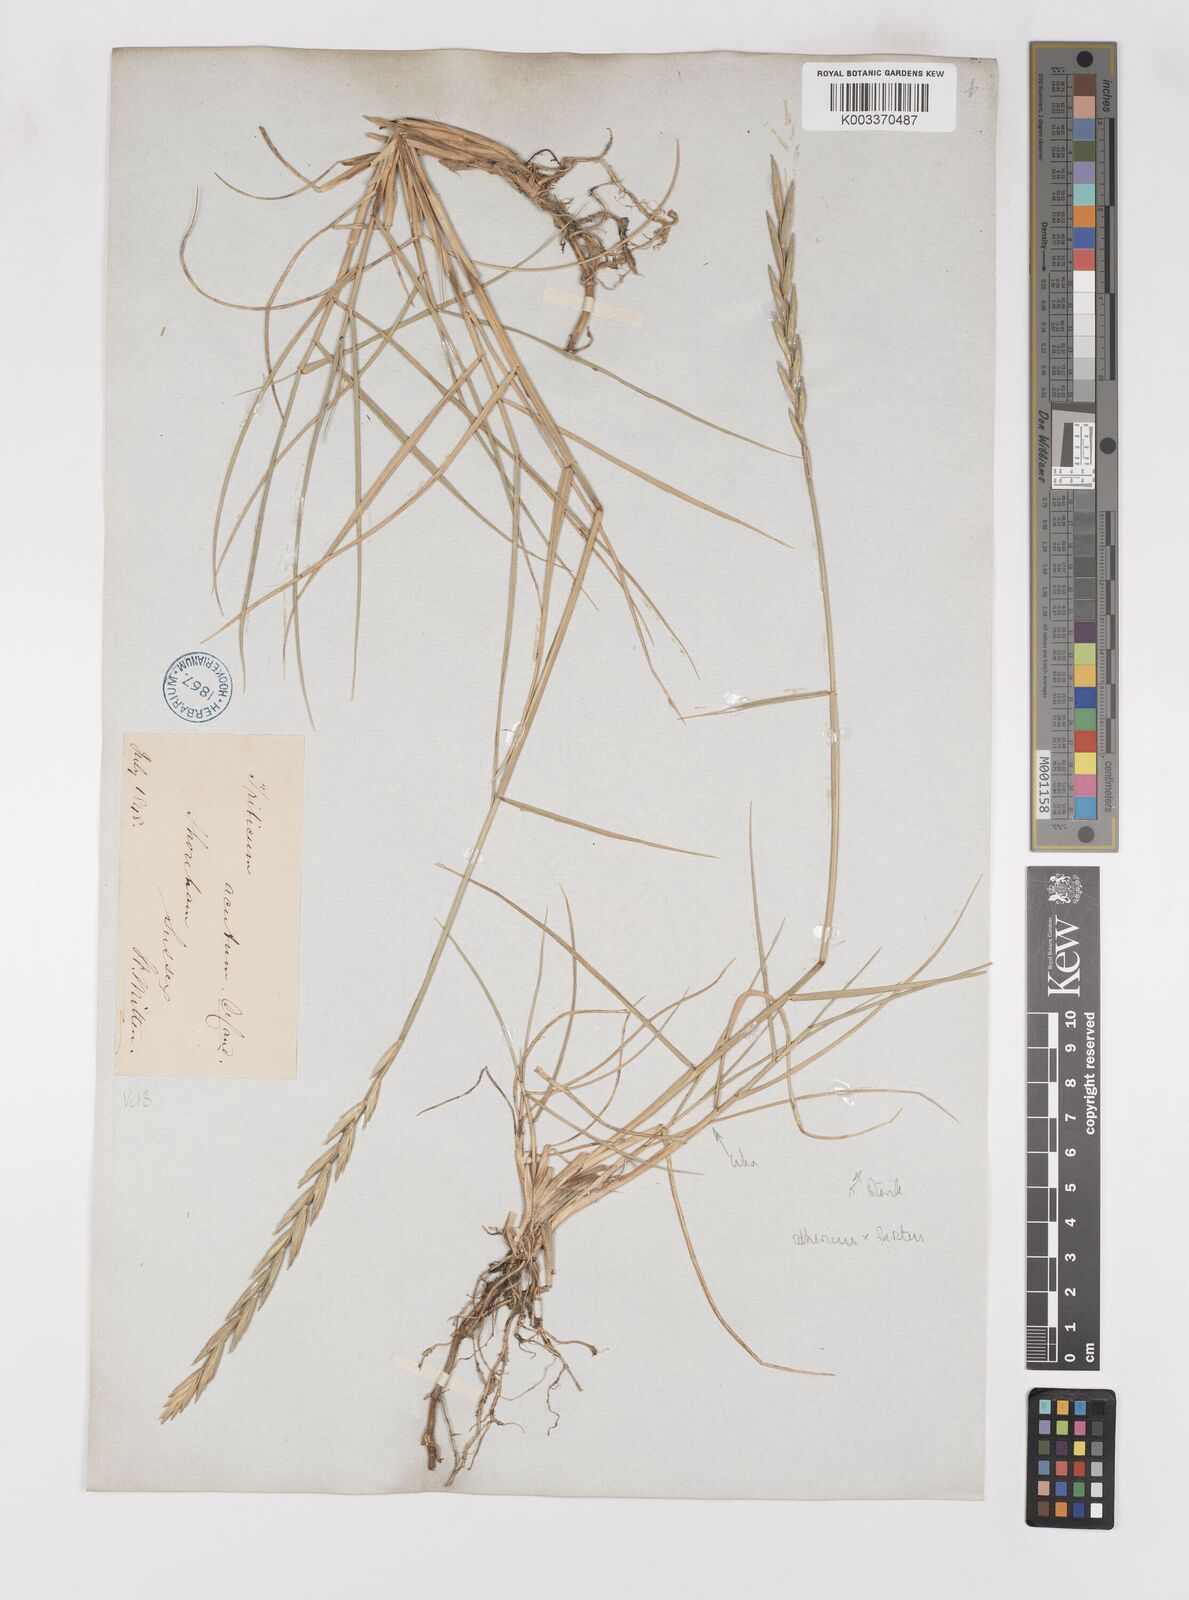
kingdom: Plantae
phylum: Tracheophyta
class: Liliopsida
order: Poales
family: Poaceae
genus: Thinoelymus
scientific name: Thinoelymus obtusiusculus
